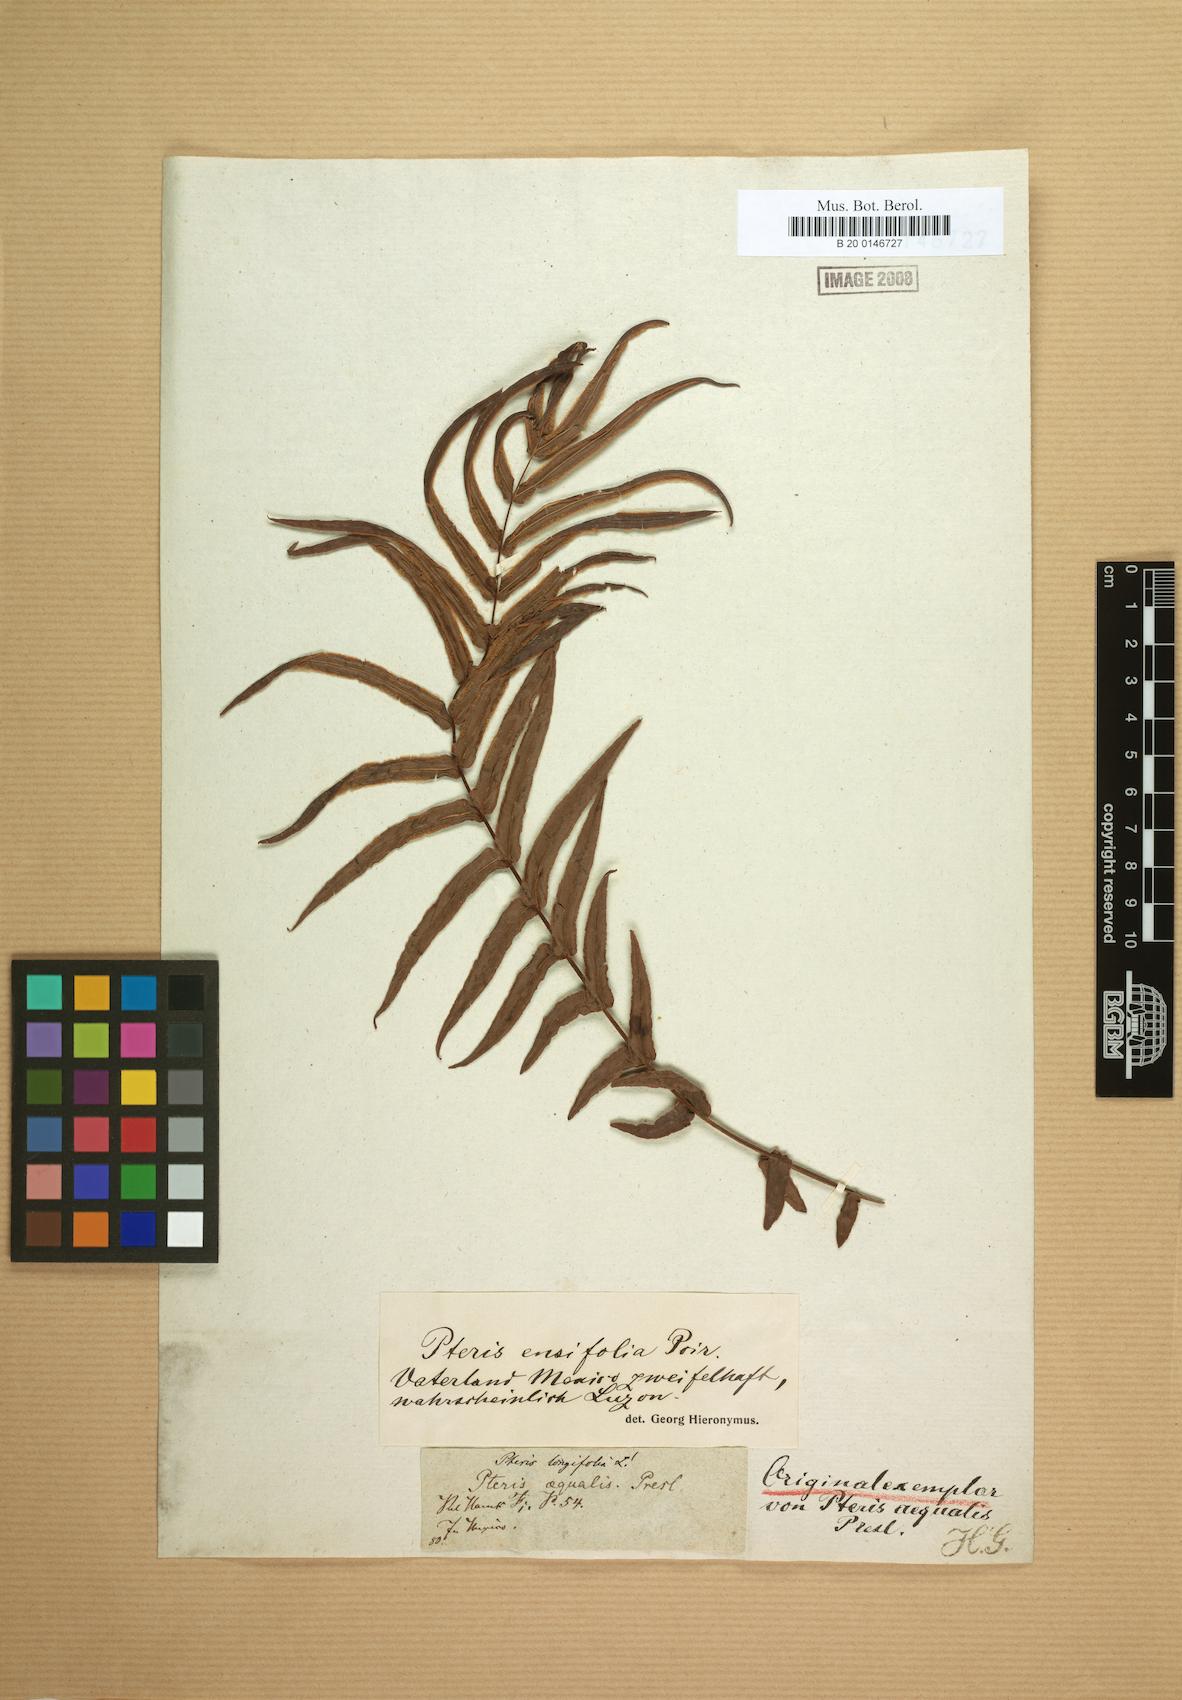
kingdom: Plantae
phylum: Tracheophyta
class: Polypodiopsida
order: Polypodiales
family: Pteridaceae
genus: Pteris
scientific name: Pteris vittata
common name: Ladder brake
